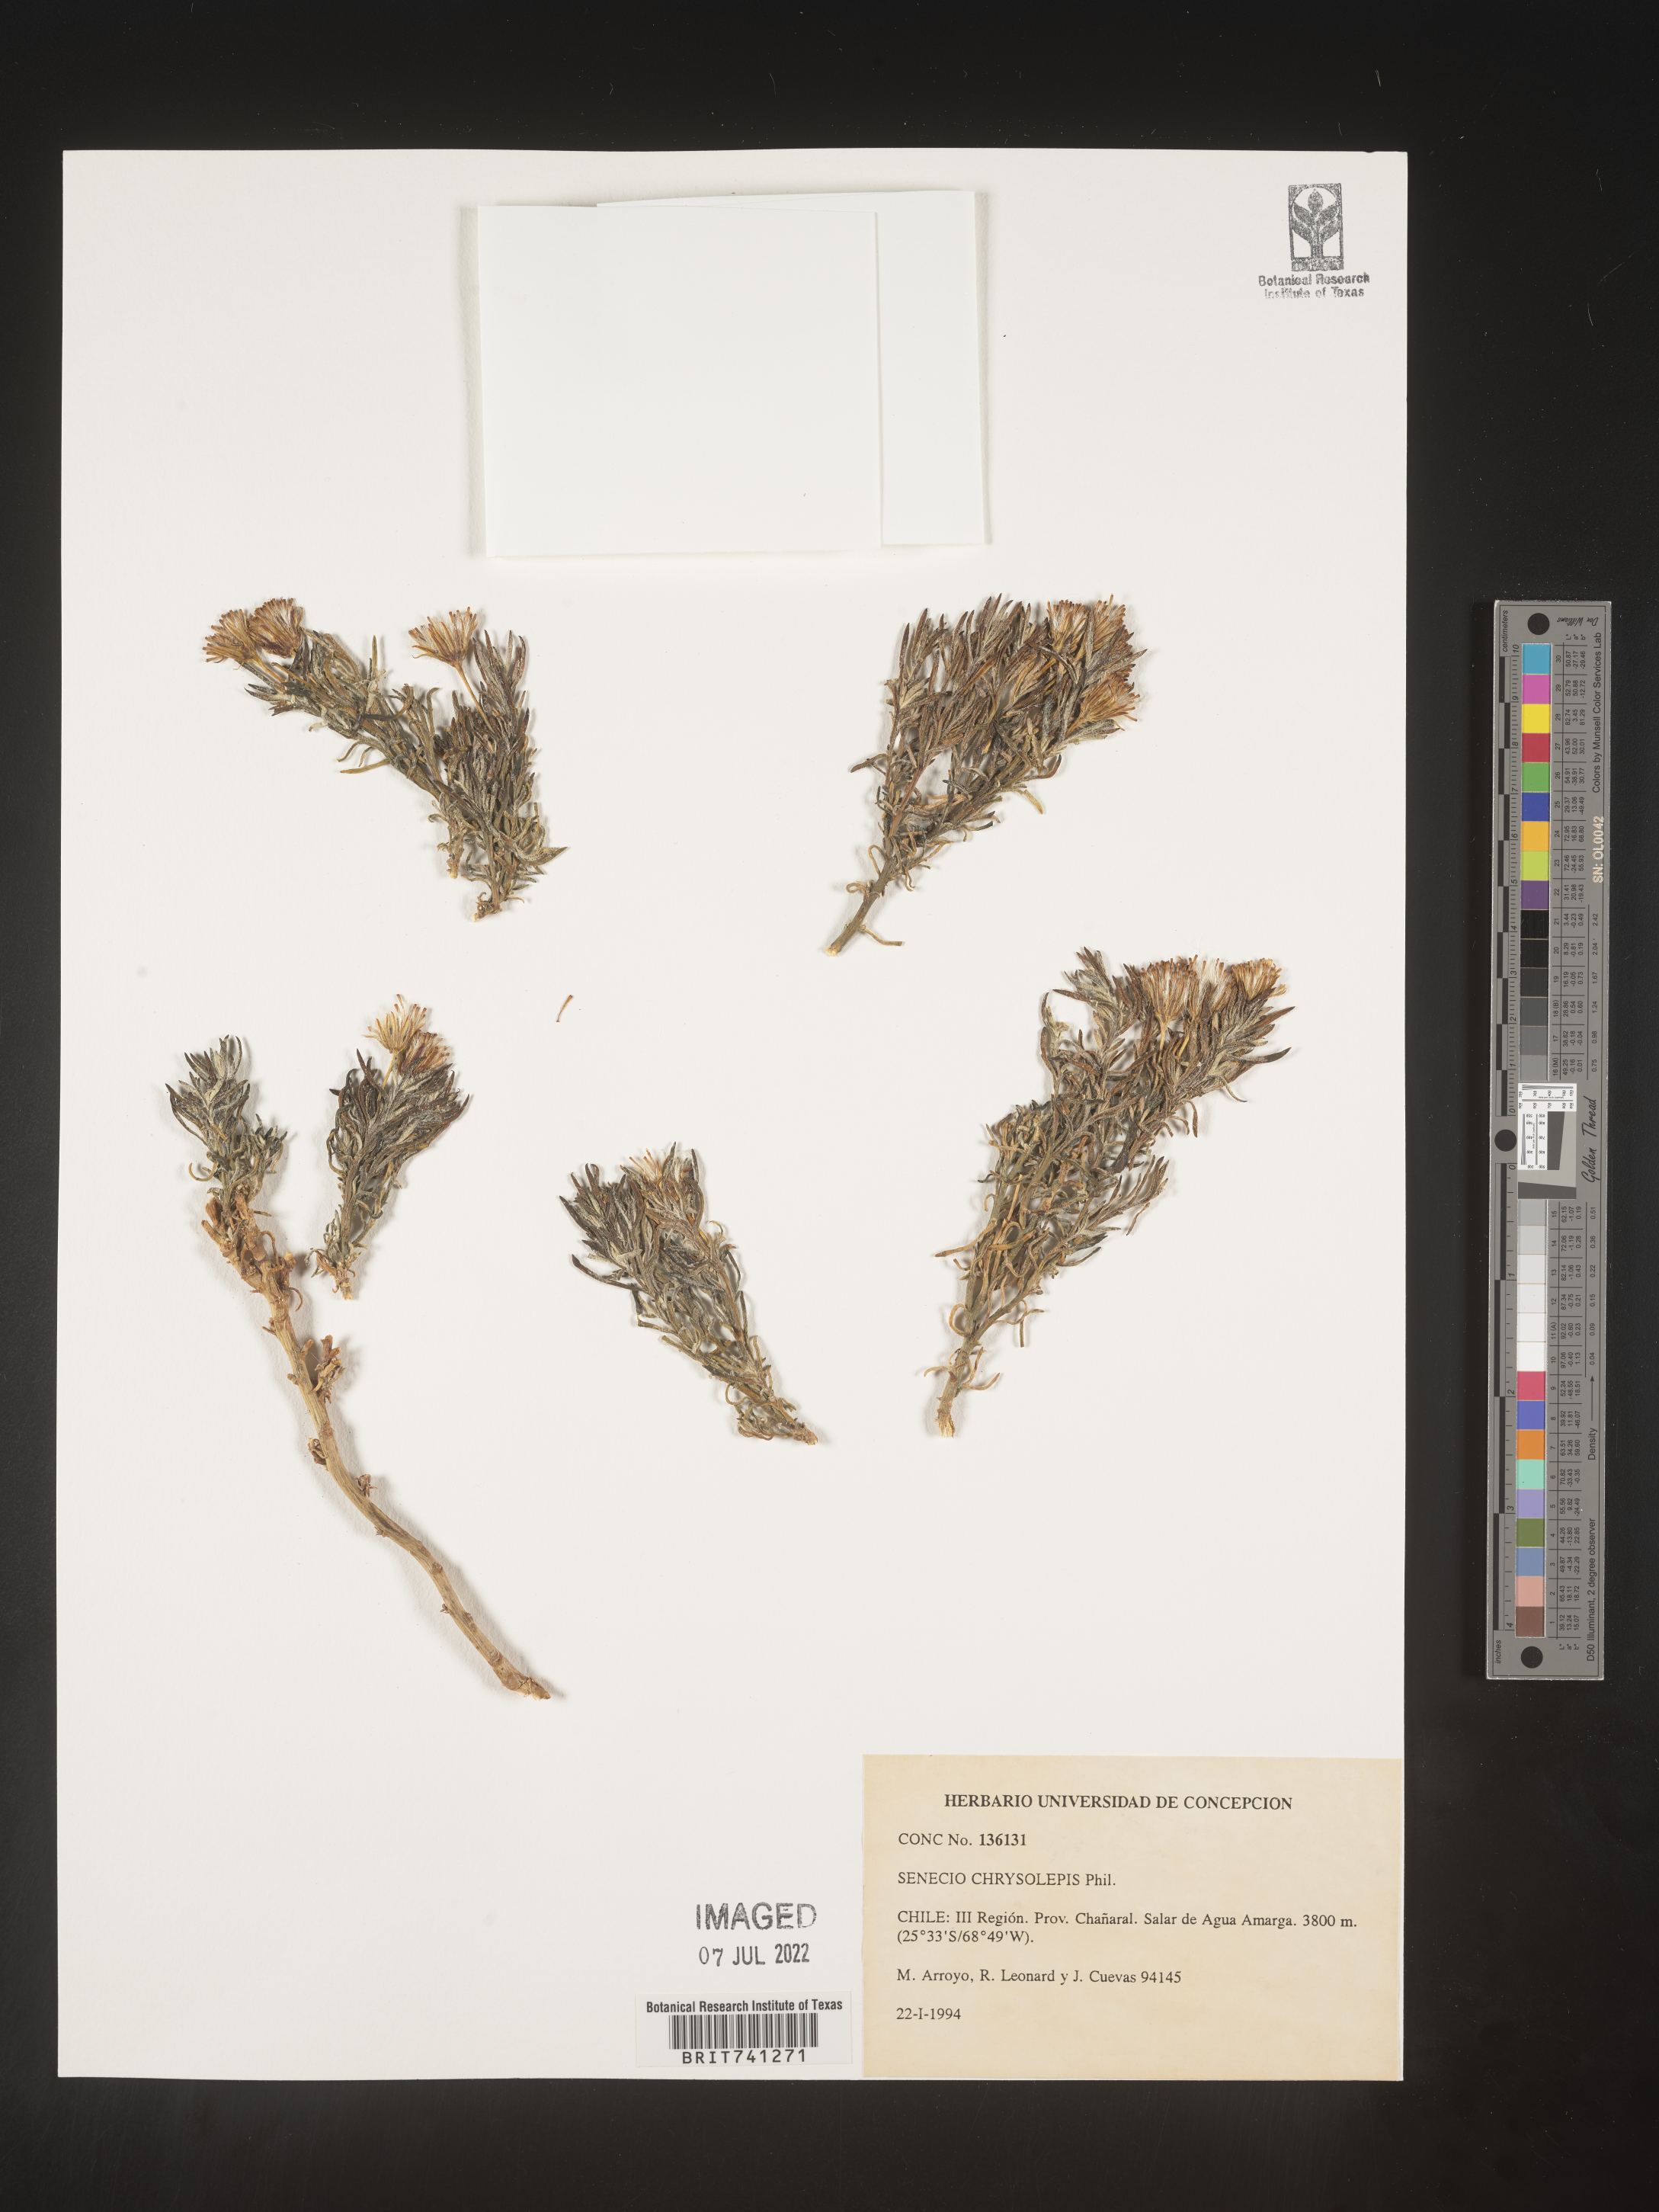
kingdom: Plantae
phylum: Tracheophyta
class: Magnoliopsida
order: Asterales
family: Asteraceae
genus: Senecio
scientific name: Senecio
